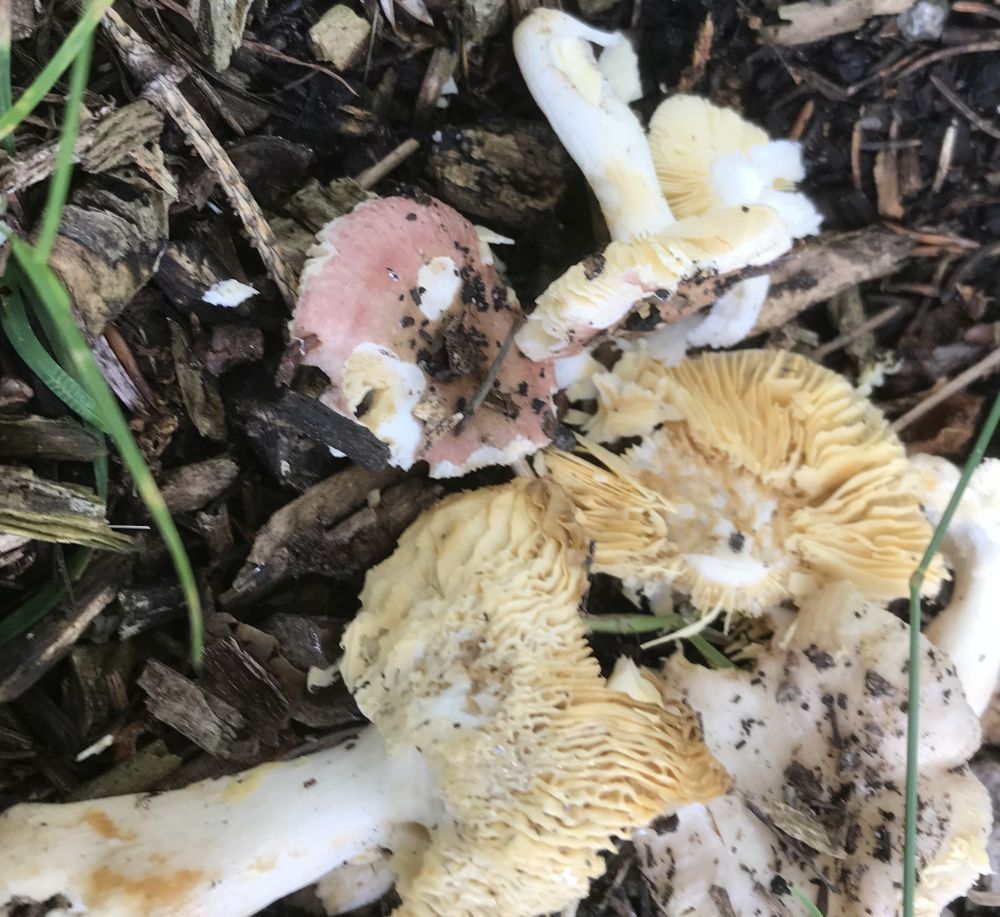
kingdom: Fungi
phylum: Basidiomycota
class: Agaricomycetes
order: Russulales
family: Russulaceae
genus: Russula
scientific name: Russula
